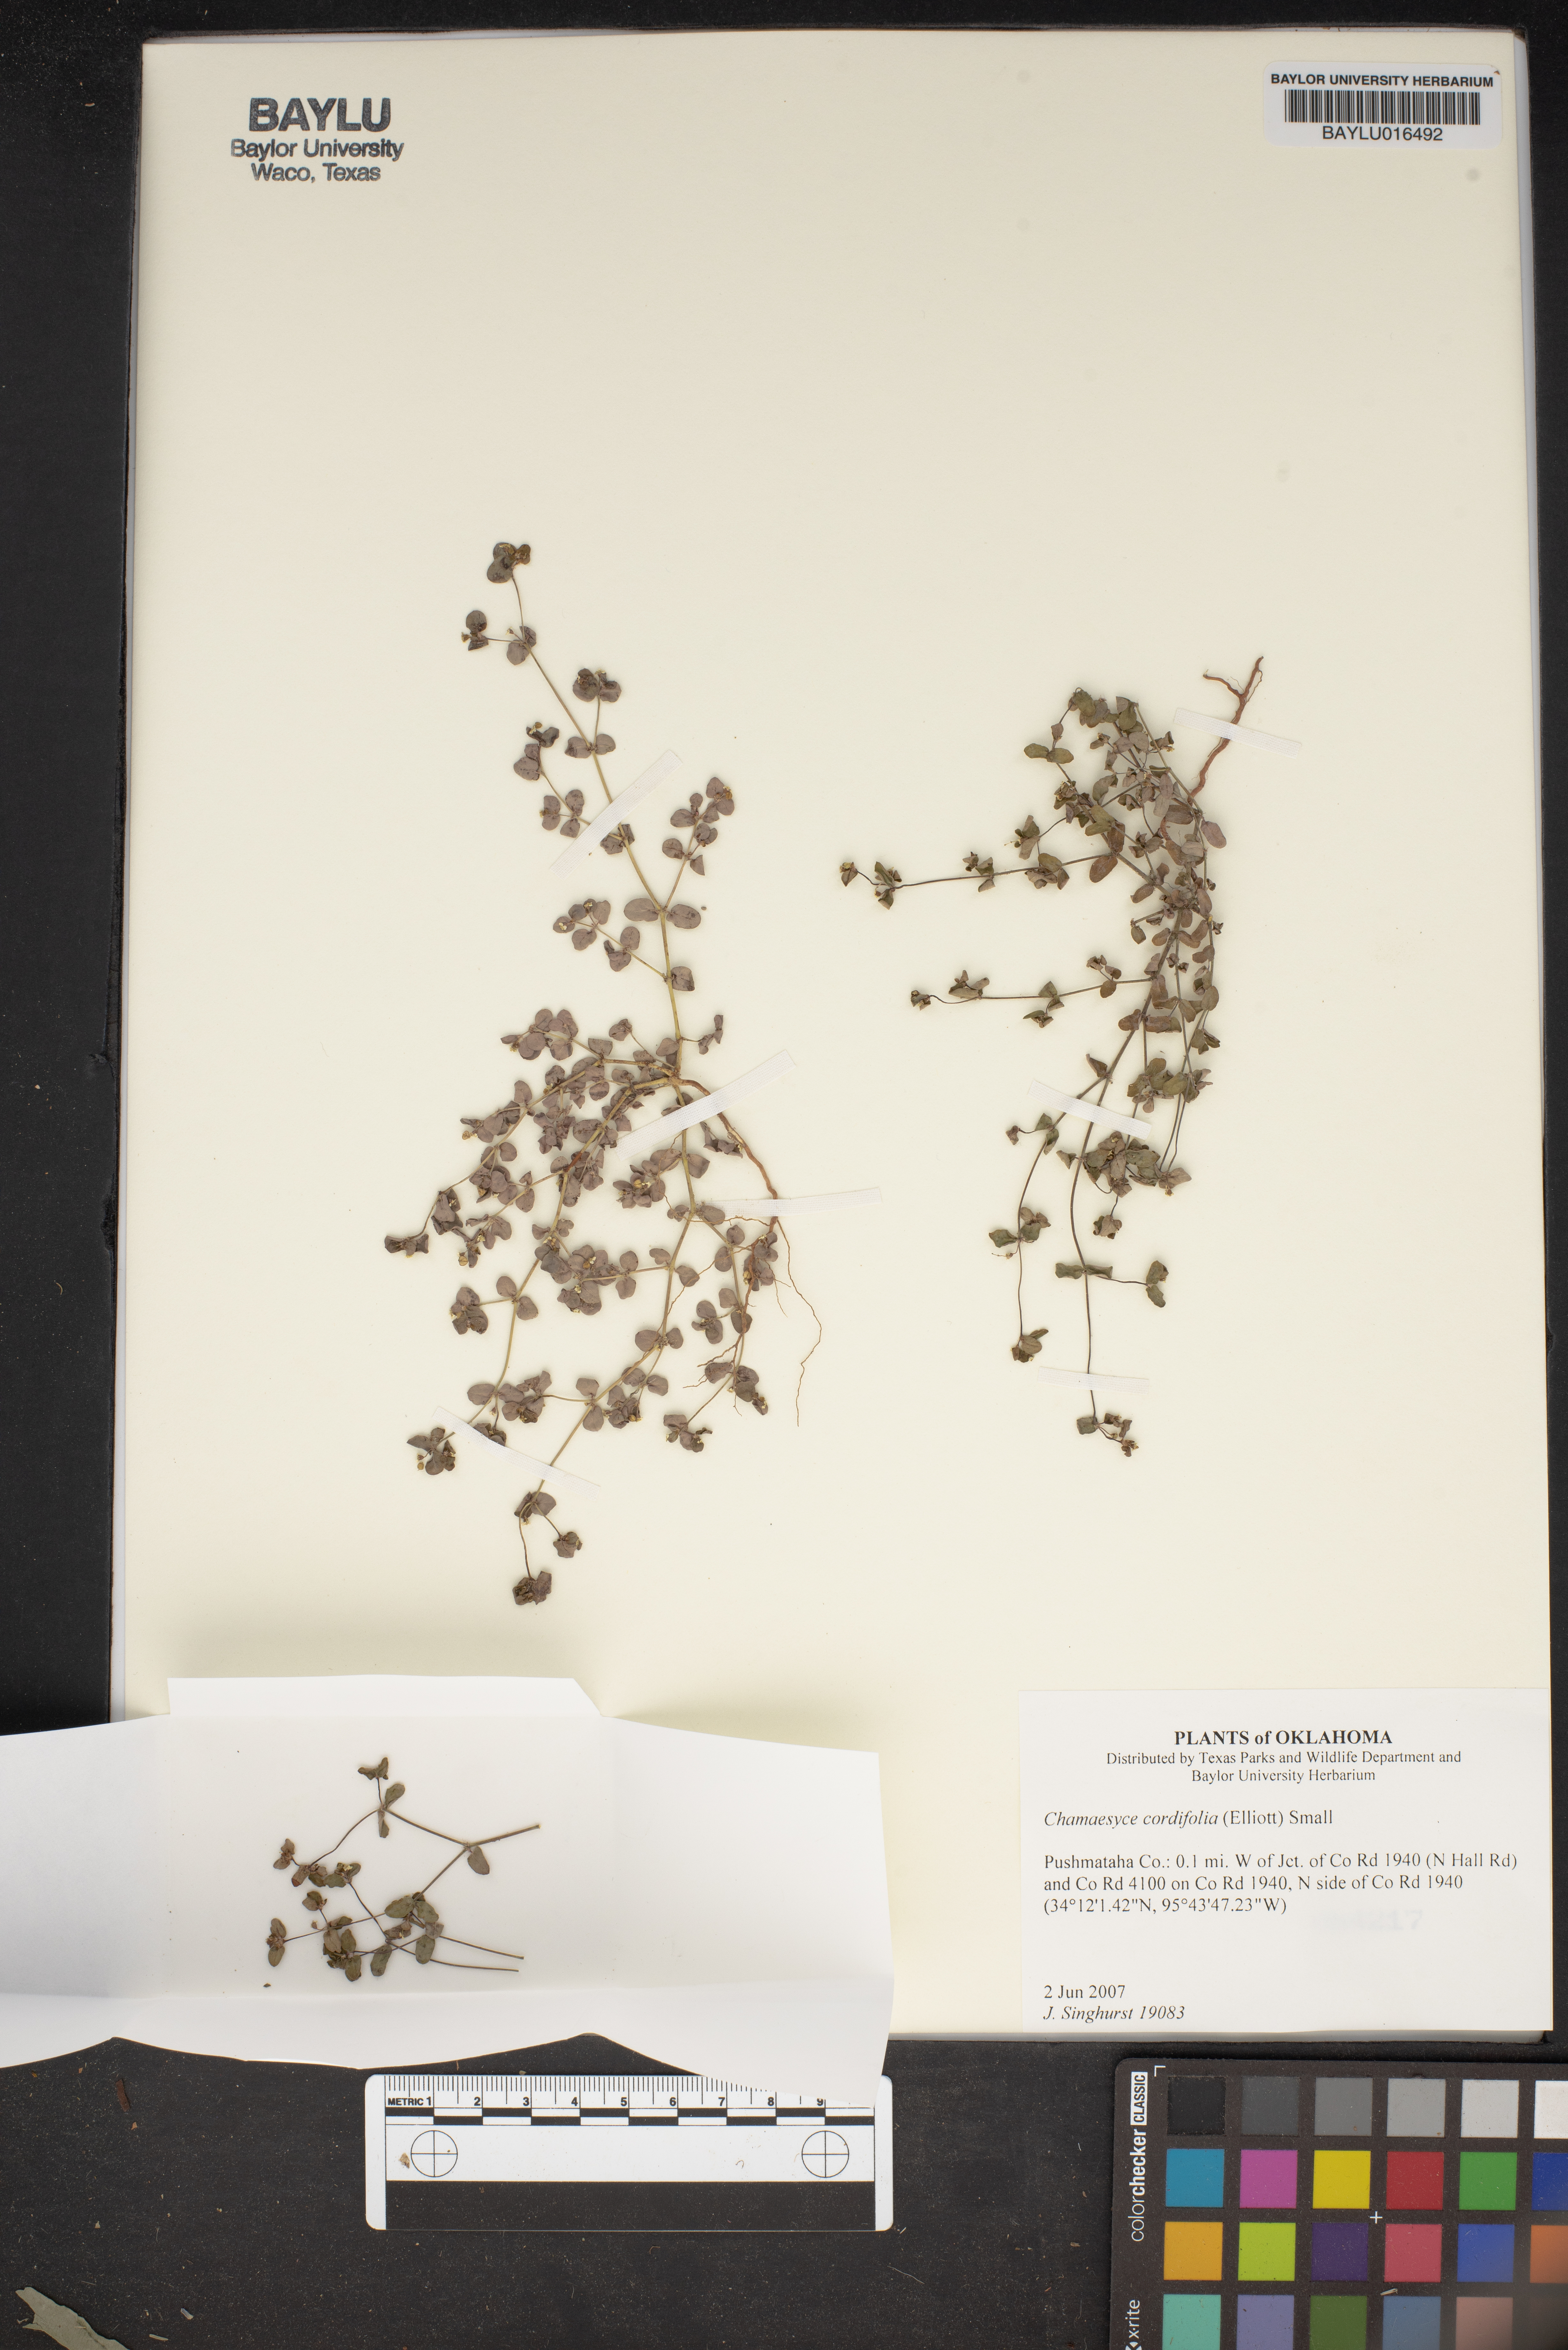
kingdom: Plantae
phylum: Tracheophyta
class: Magnoliopsida
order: Malpighiales
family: Euphorbiaceae
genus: Euphorbia
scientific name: Euphorbia cordifolia
